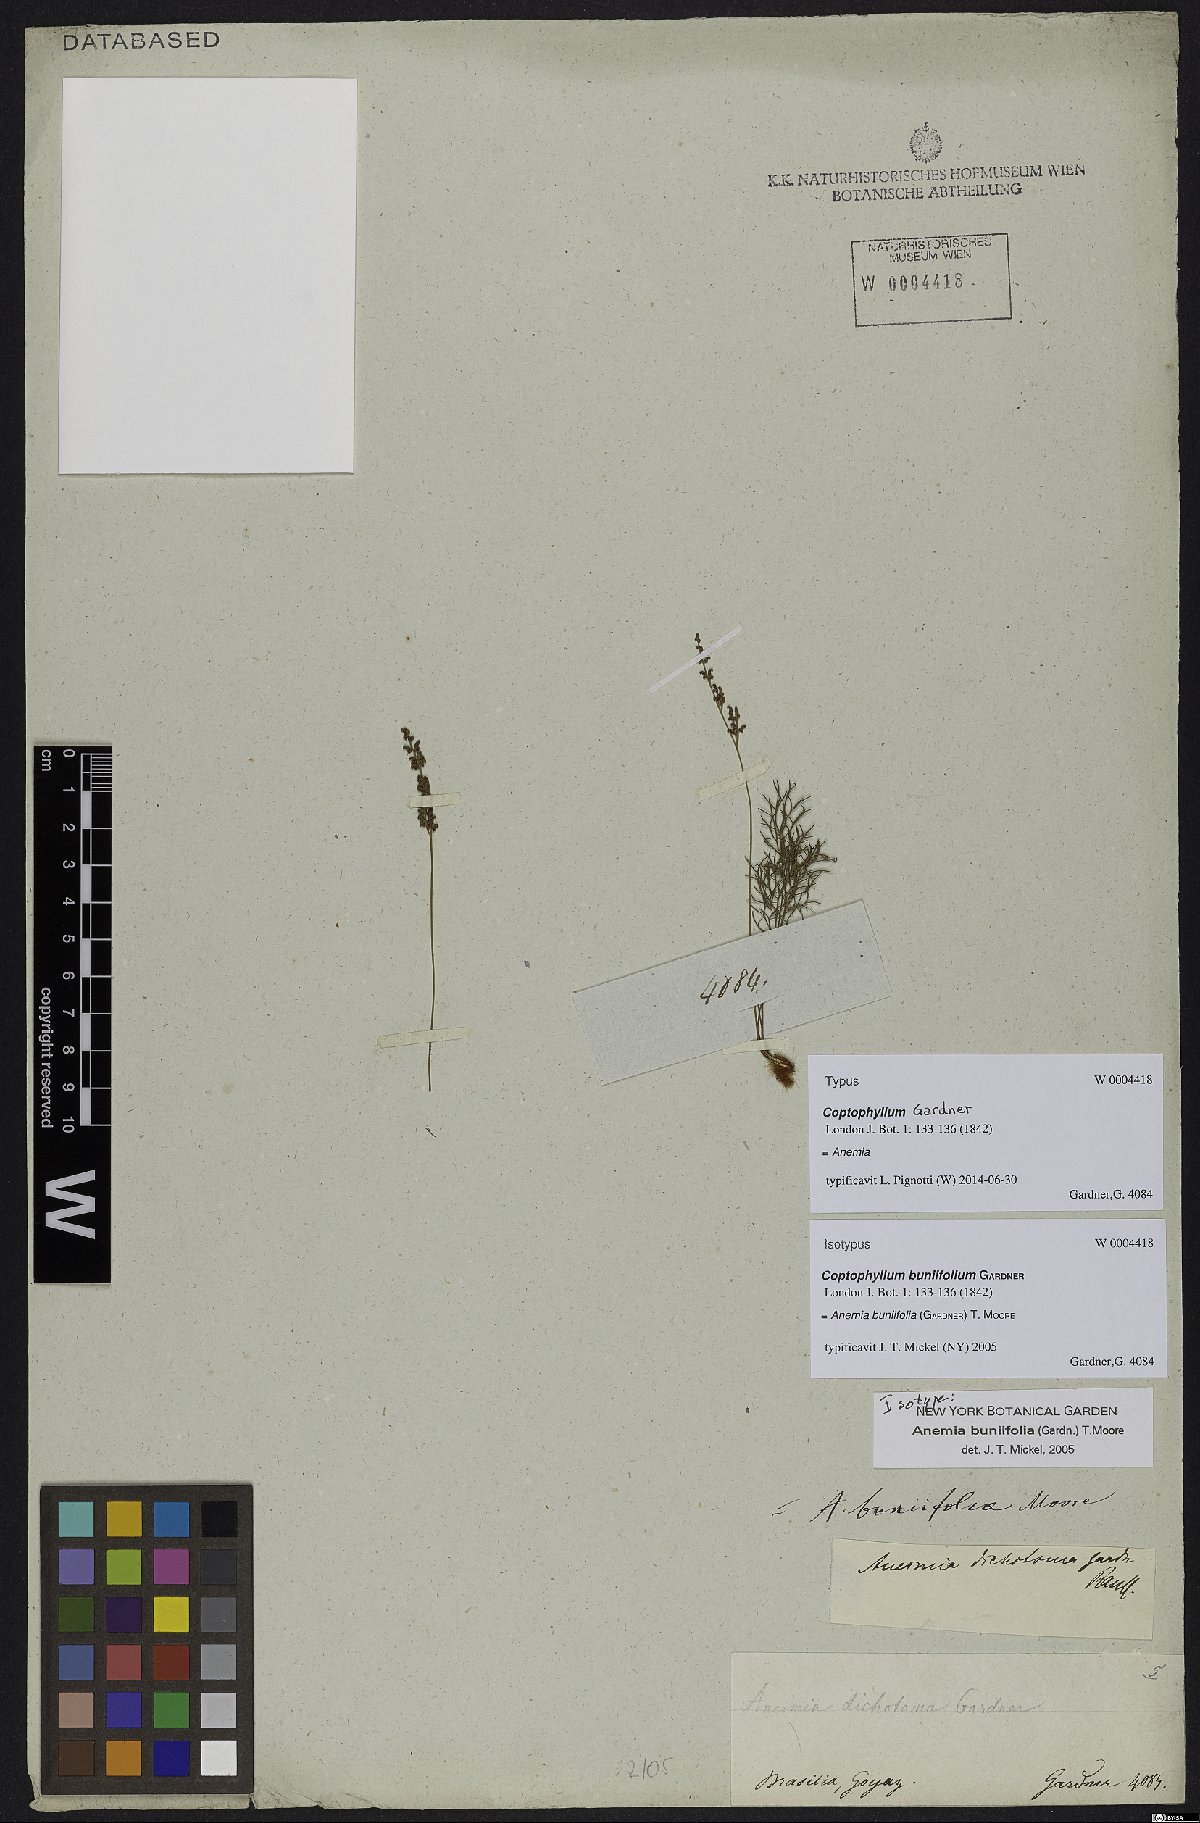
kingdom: Plantae
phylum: Tracheophyta
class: Polypodiopsida
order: Schizaeales
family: Anemiaceae
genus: Anemia
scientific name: Anemia buniifolia
